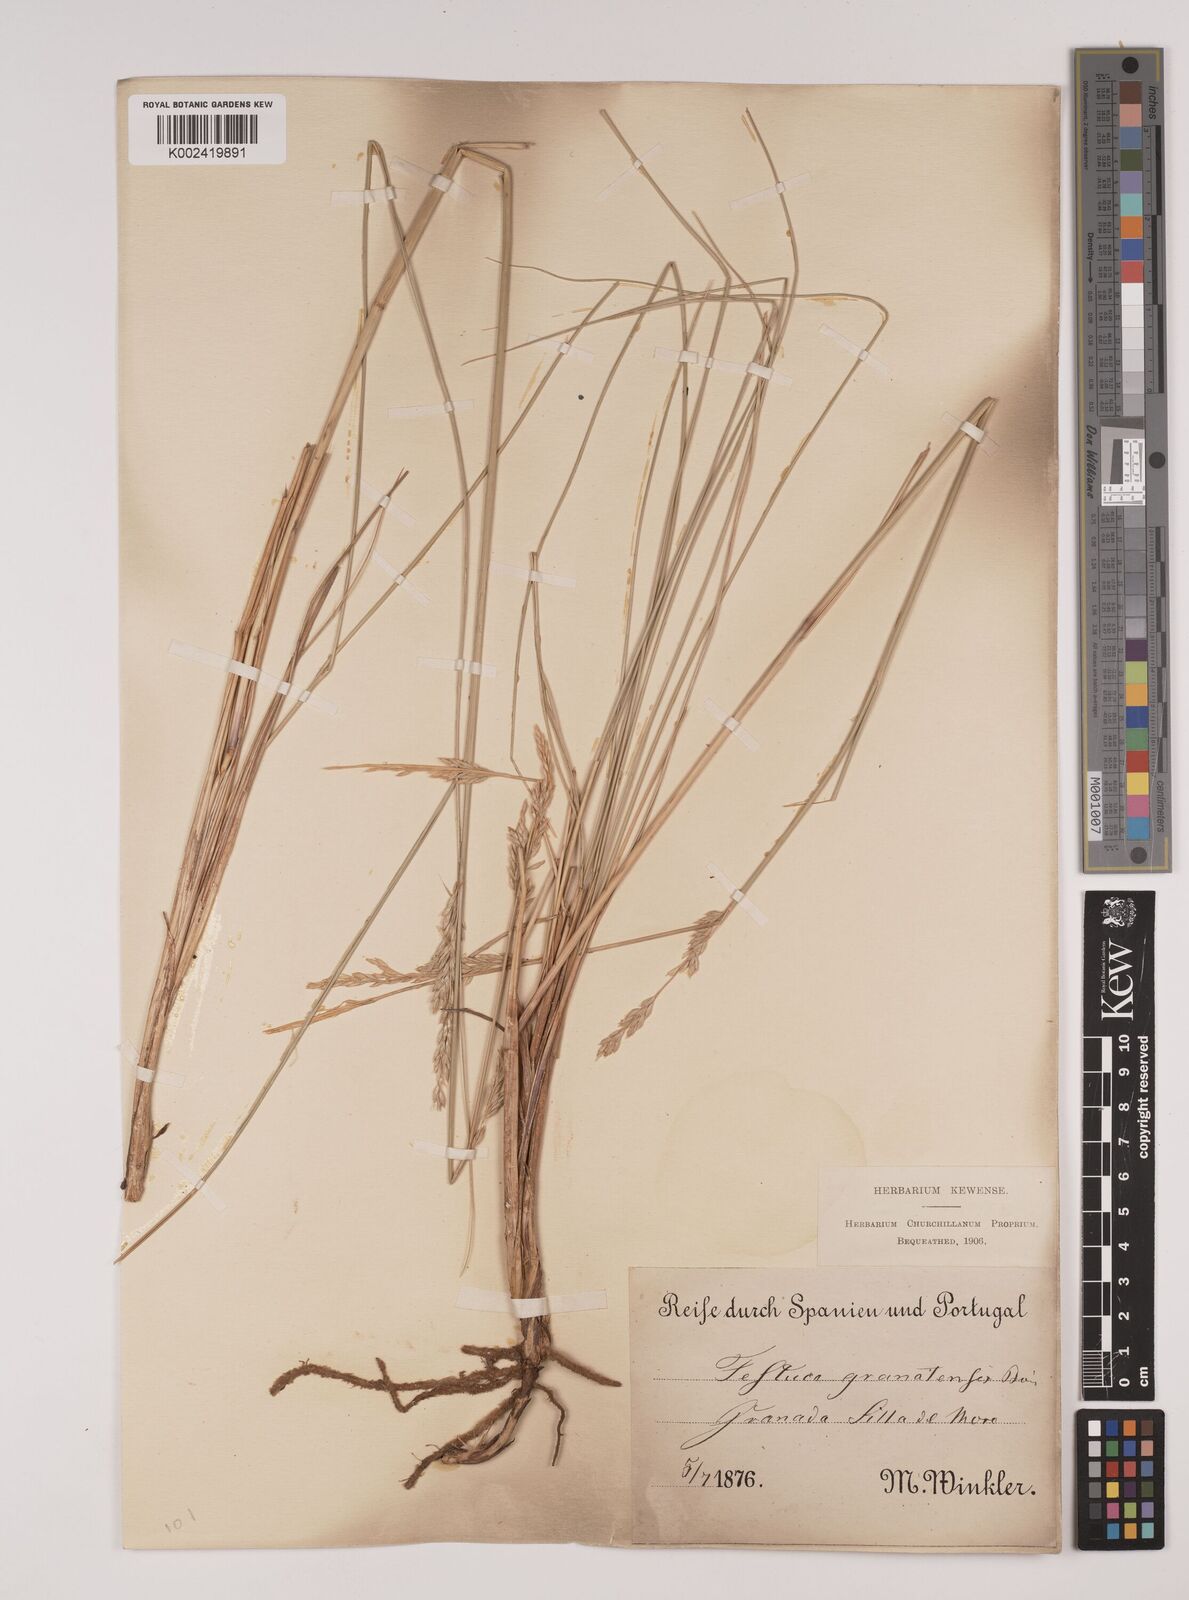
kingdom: Plantae
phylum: Tracheophyta
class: Liliopsida
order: Poales
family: Poaceae
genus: Festuca
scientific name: Festuca scariosa
